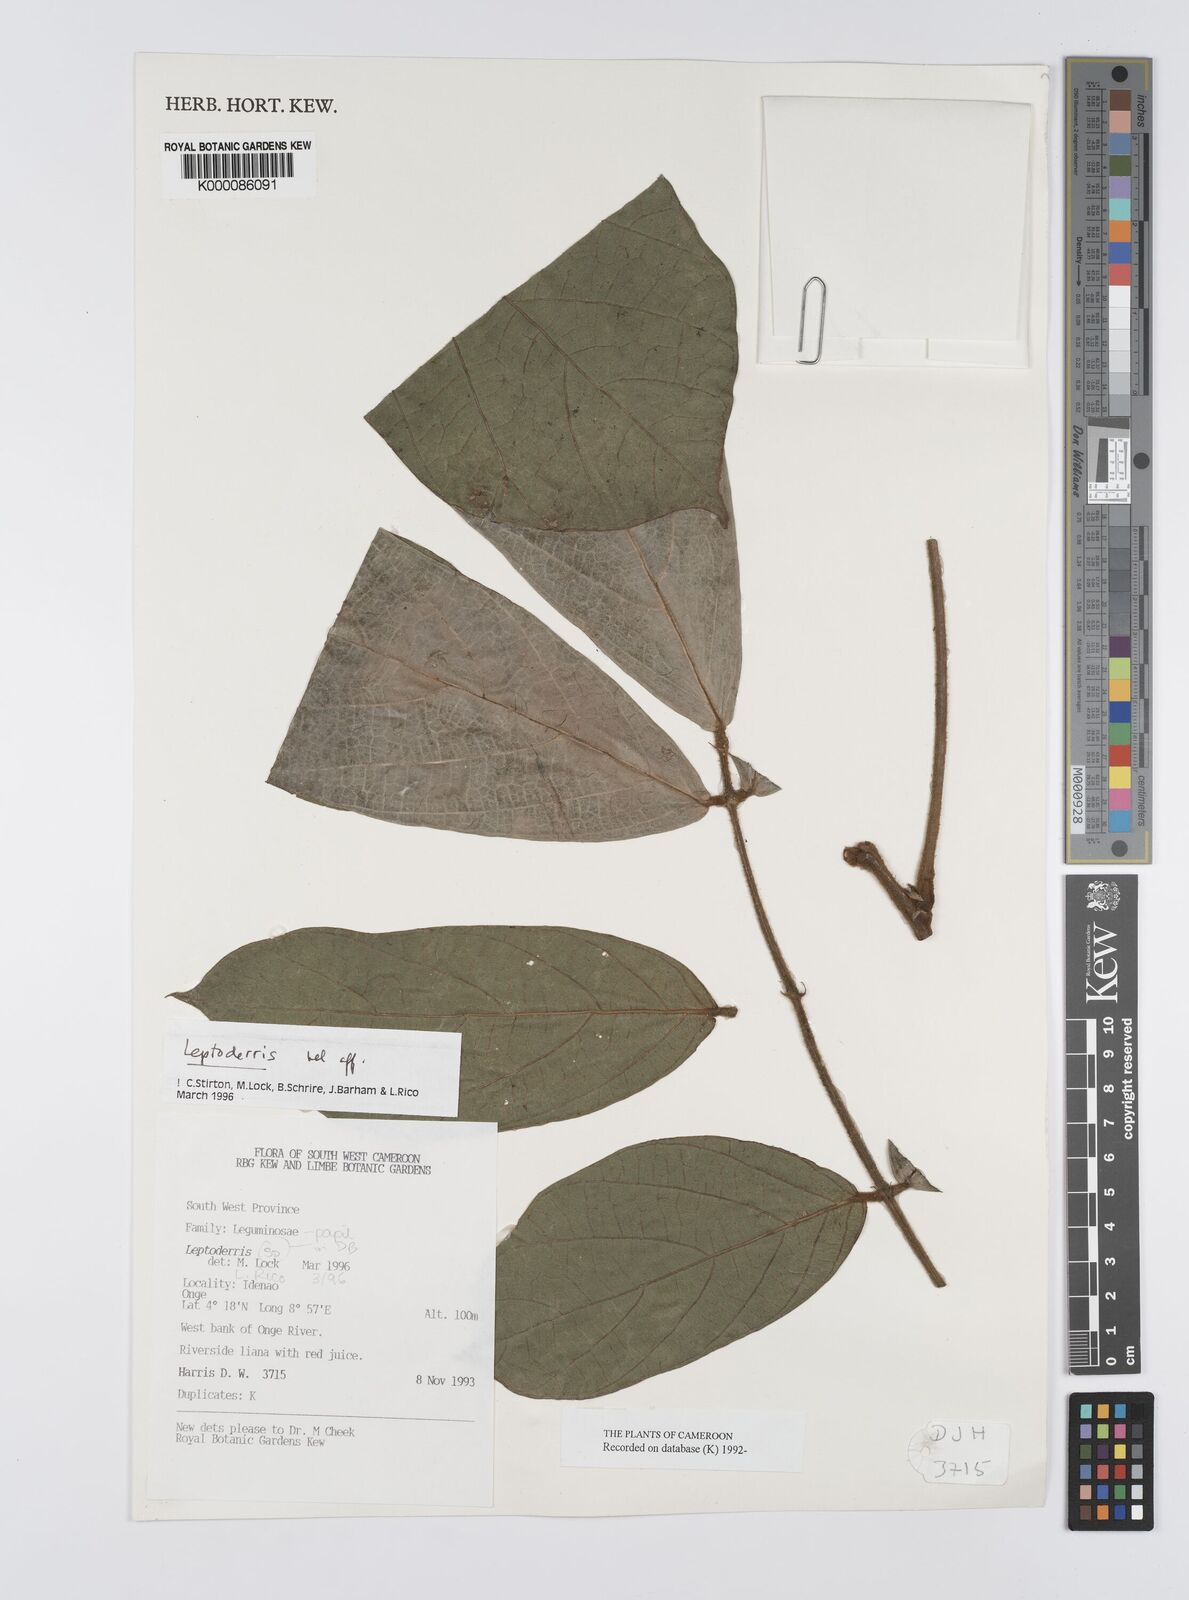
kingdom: Plantae
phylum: Tracheophyta
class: Magnoliopsida
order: Fabales
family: Fabaceae
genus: Leptoderris
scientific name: Leptoderris
